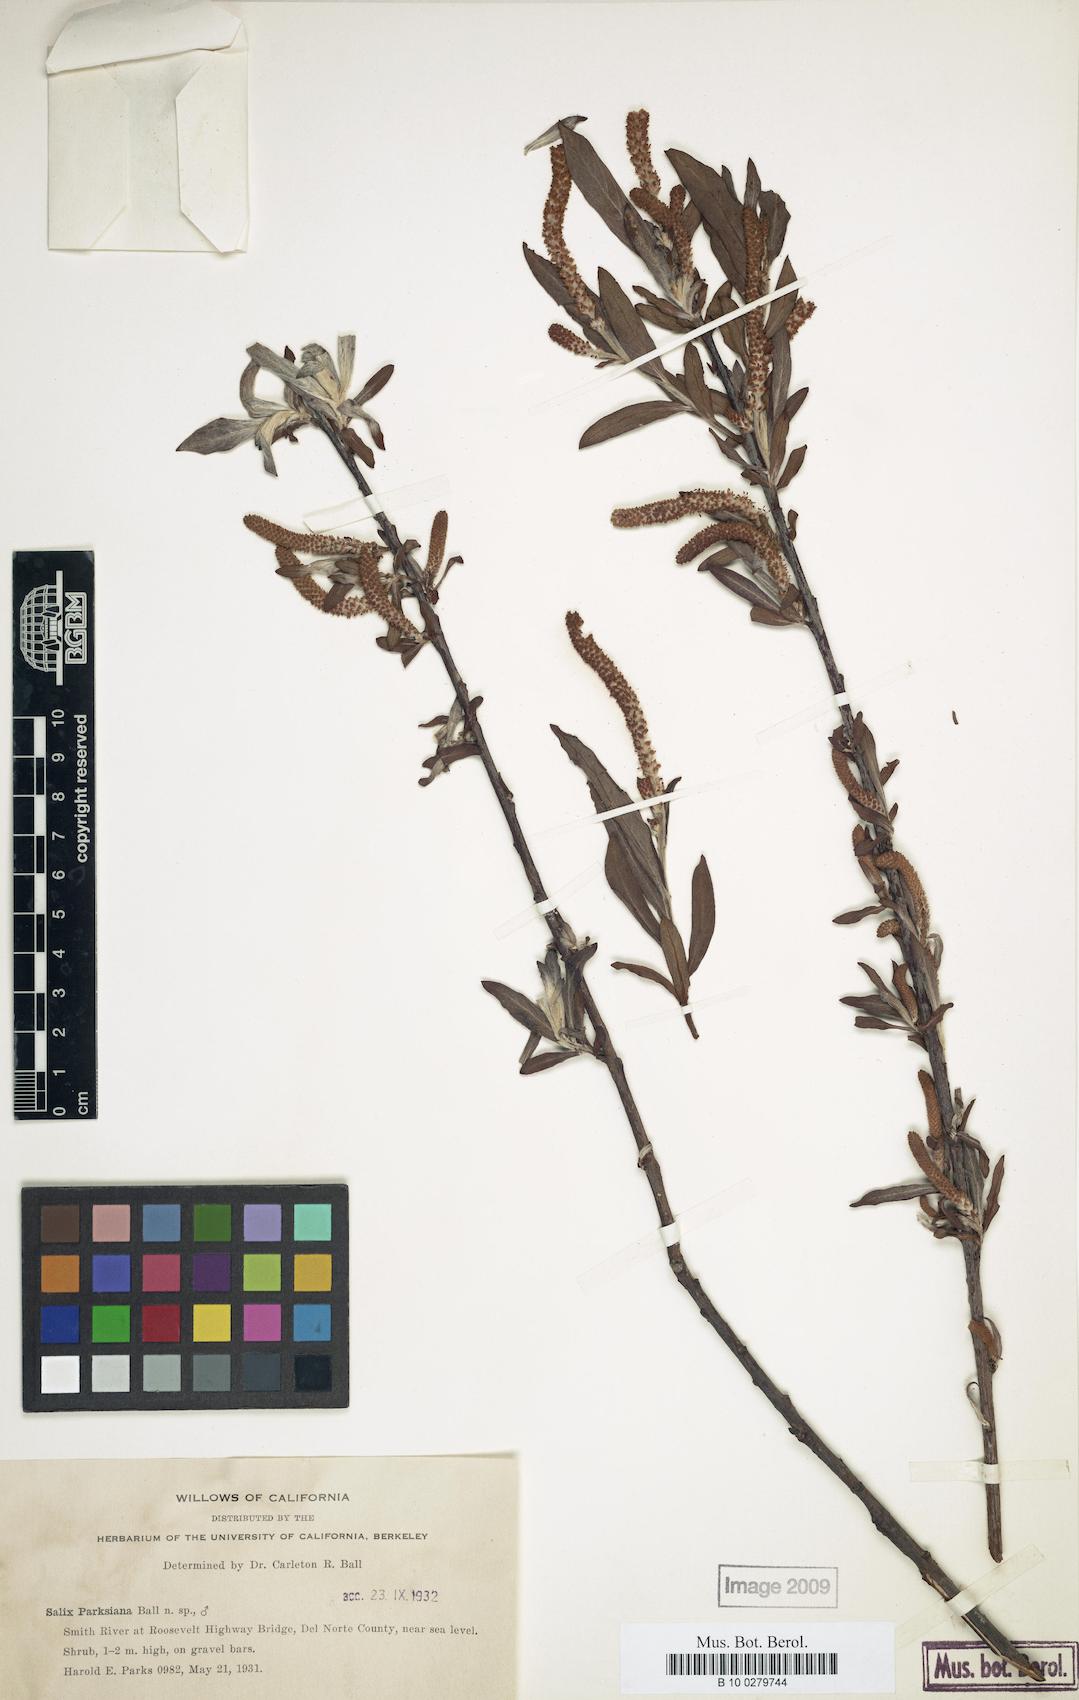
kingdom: Plantae
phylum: Tracheophyta
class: Magnoliopsida
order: Malpighiales
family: Salicaceae
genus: Salix
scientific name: Salix melanopsis
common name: Dusky willow
